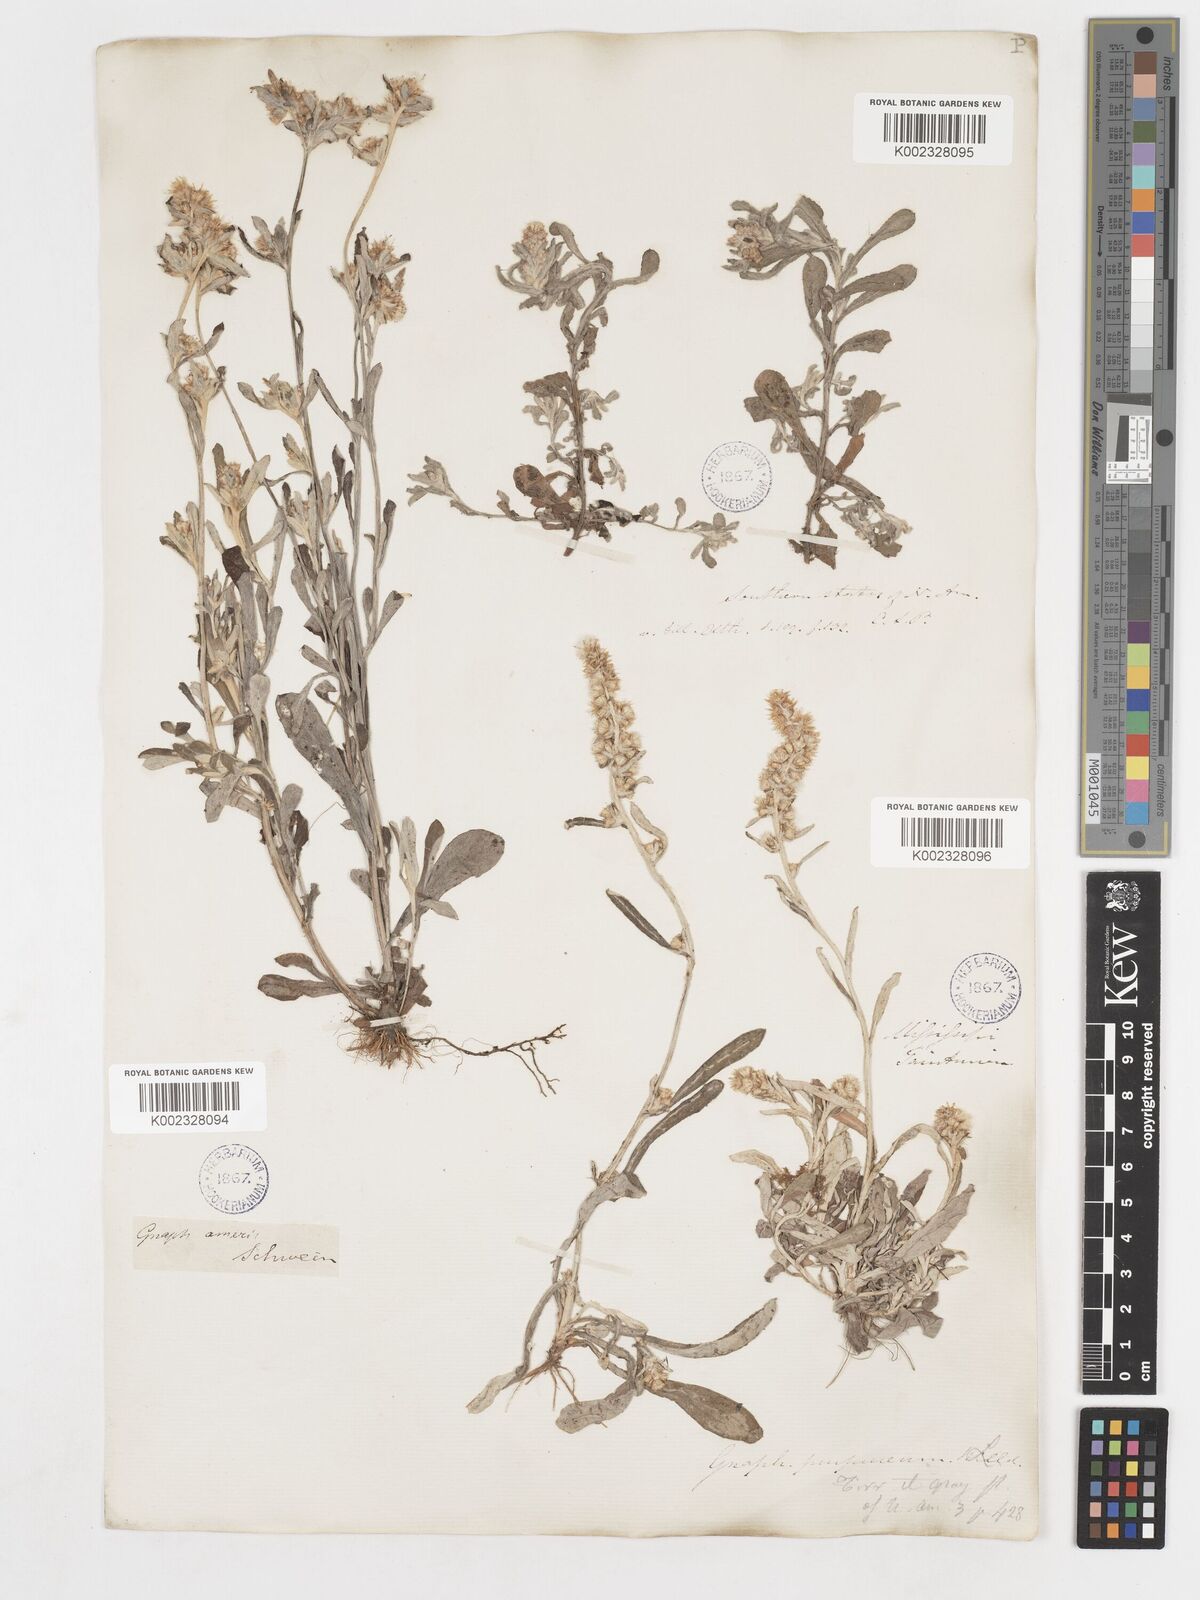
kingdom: Plantae
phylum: Tracheophyta
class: Magnoliopsida
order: Asterales
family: Asteraceae
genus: Gamochaeta
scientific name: Gamochaeta purpurea
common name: Purple cudweed
